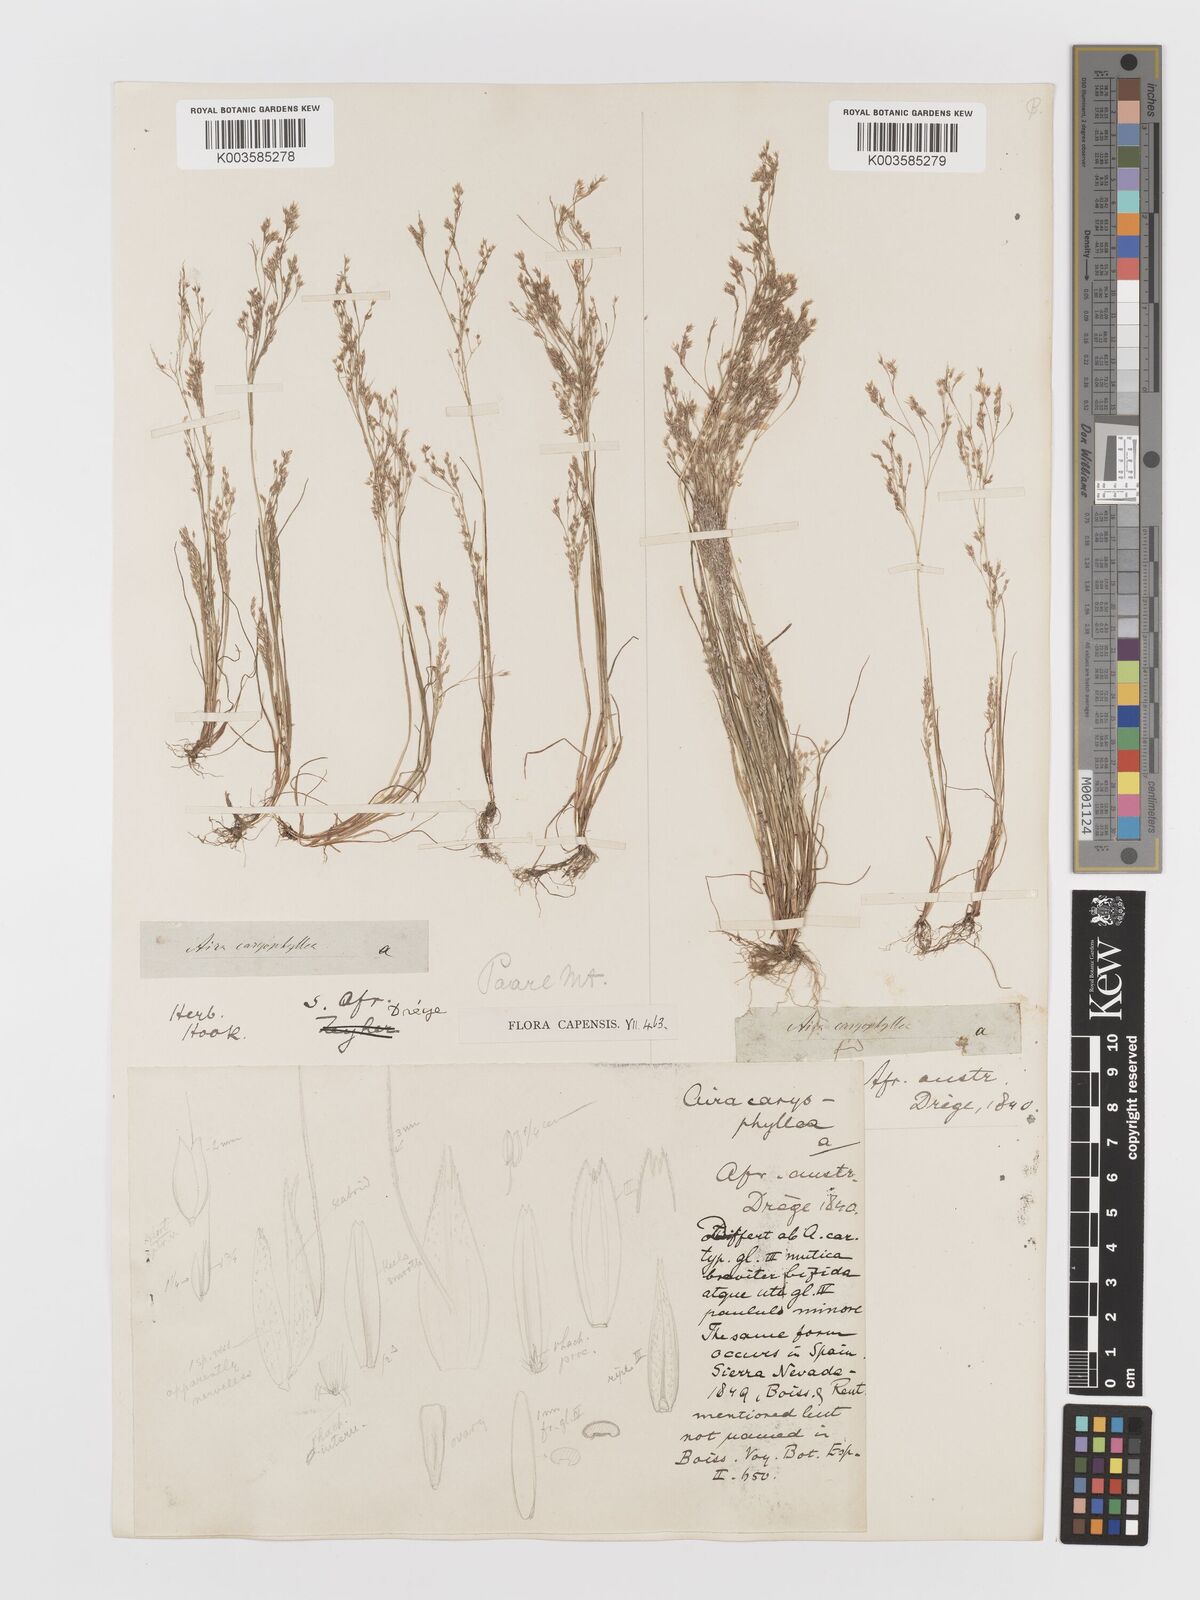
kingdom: Plantae
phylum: Tracheophyta
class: Liliopsida
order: Poales
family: Poaceae
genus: Aira
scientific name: Aira cupaniana
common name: Silver hairgrass
